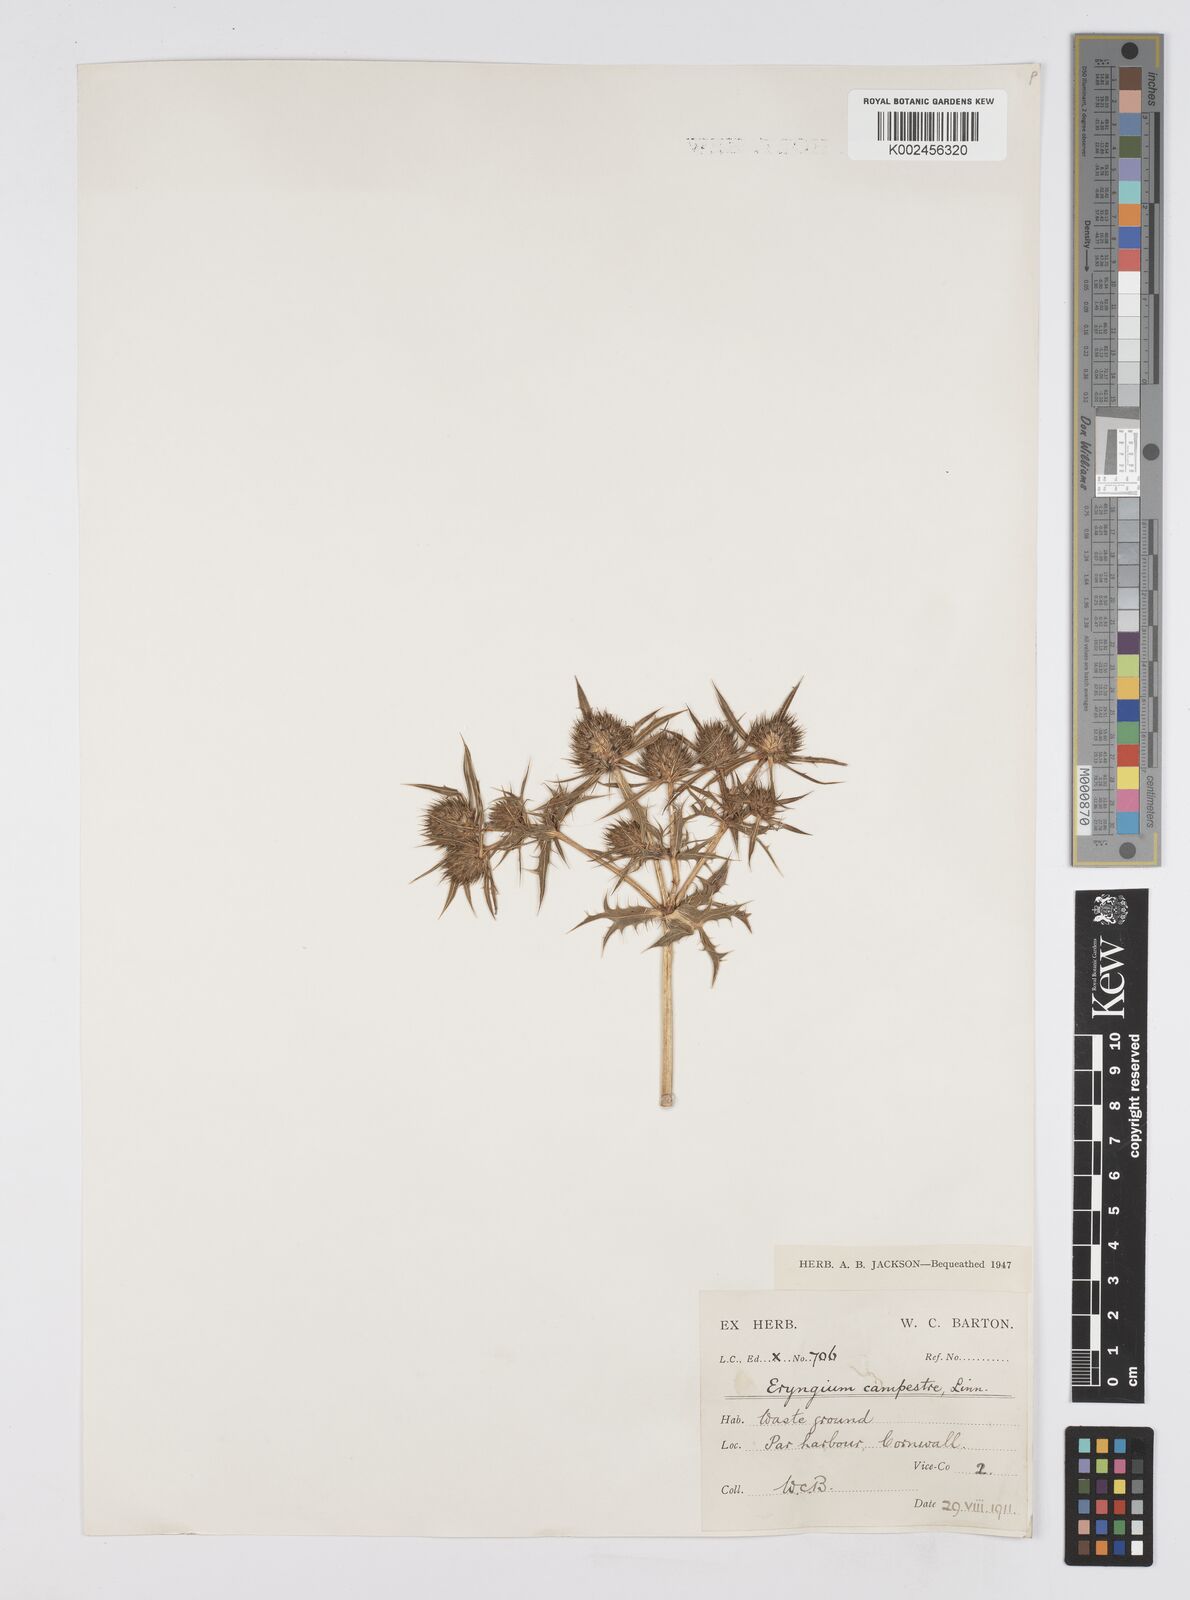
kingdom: Plantae
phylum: Tracheophyta
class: Magnoliopsida
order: Apiales
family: Apiaceae
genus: Eryngium
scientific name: Eryngium campestre
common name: Field eryngo
